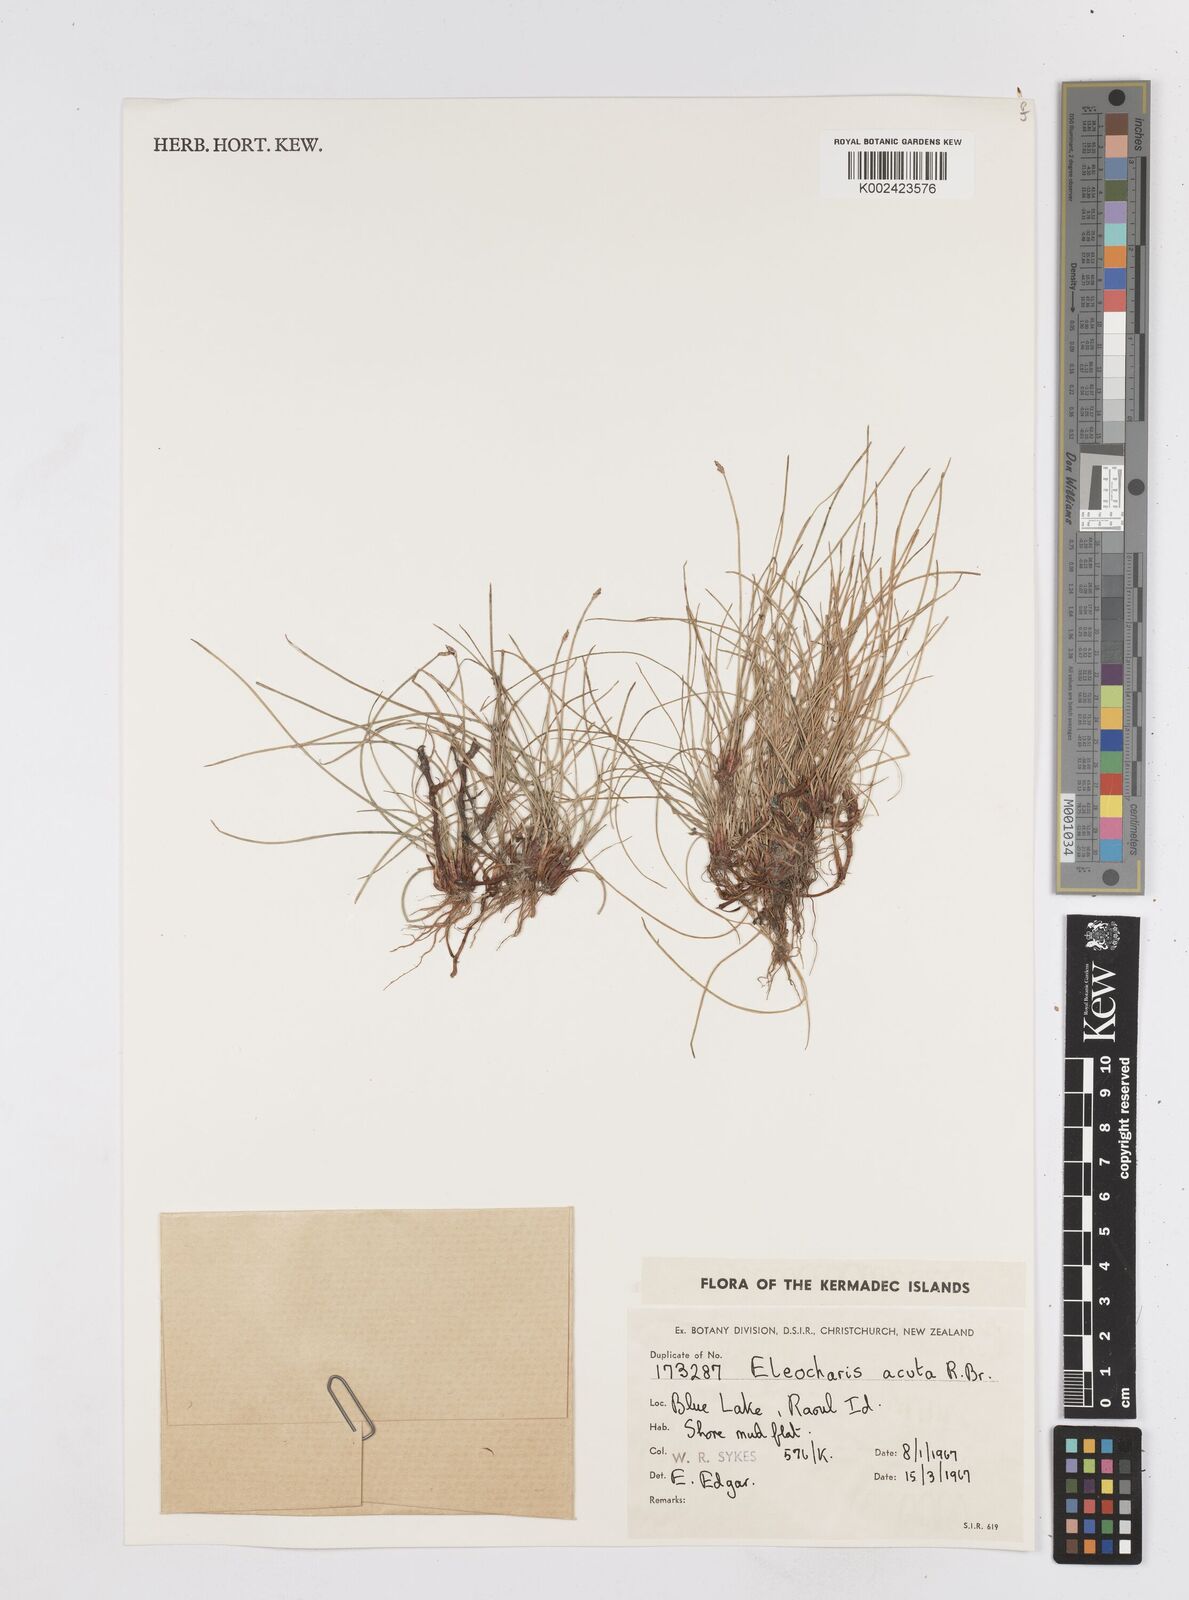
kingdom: Plantae
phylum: Tracheophyta
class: Liliopsida
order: Poales
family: Cyperaceae
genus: Eleocharis
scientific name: Eleocharis acuta
